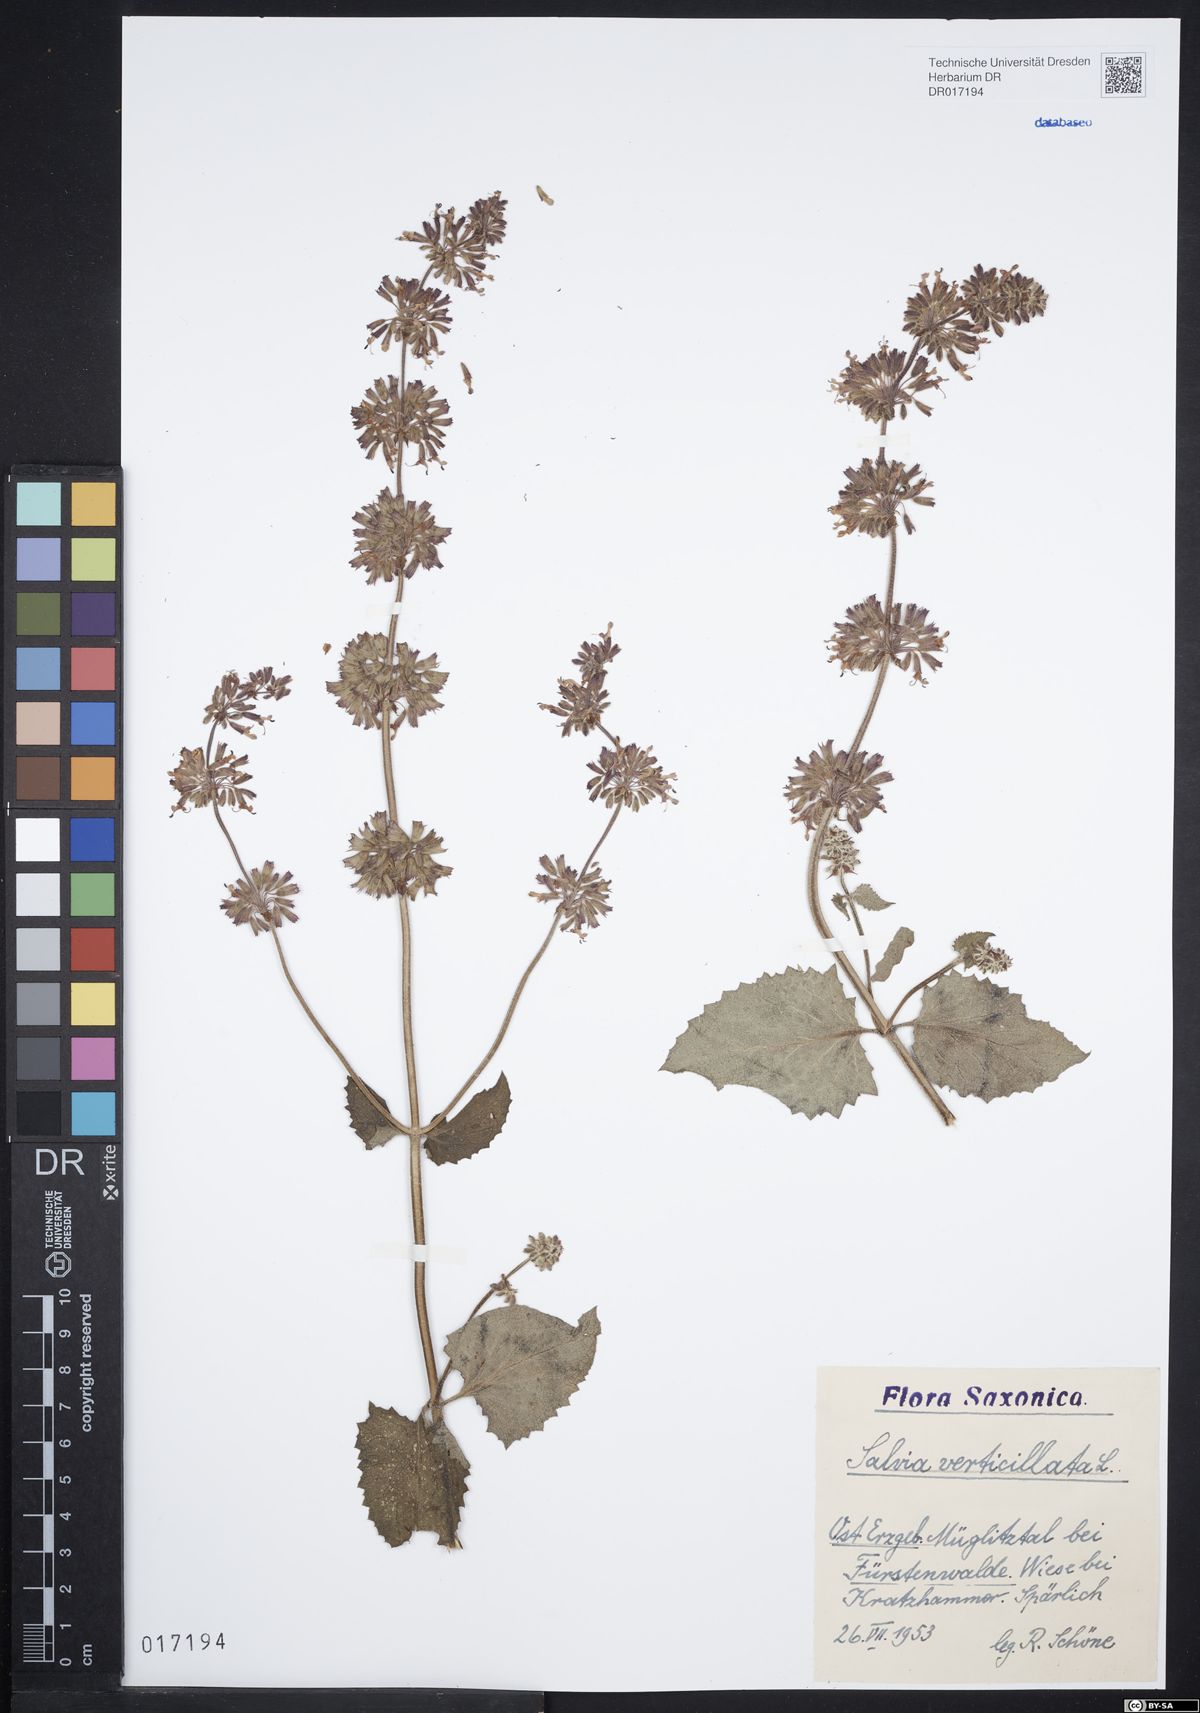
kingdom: Plantae
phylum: Tracheophyta
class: Magnoliopsida
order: Lamiales
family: Lamiaceae
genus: Salvia
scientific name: Salvia verticillata
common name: Whorled clary
